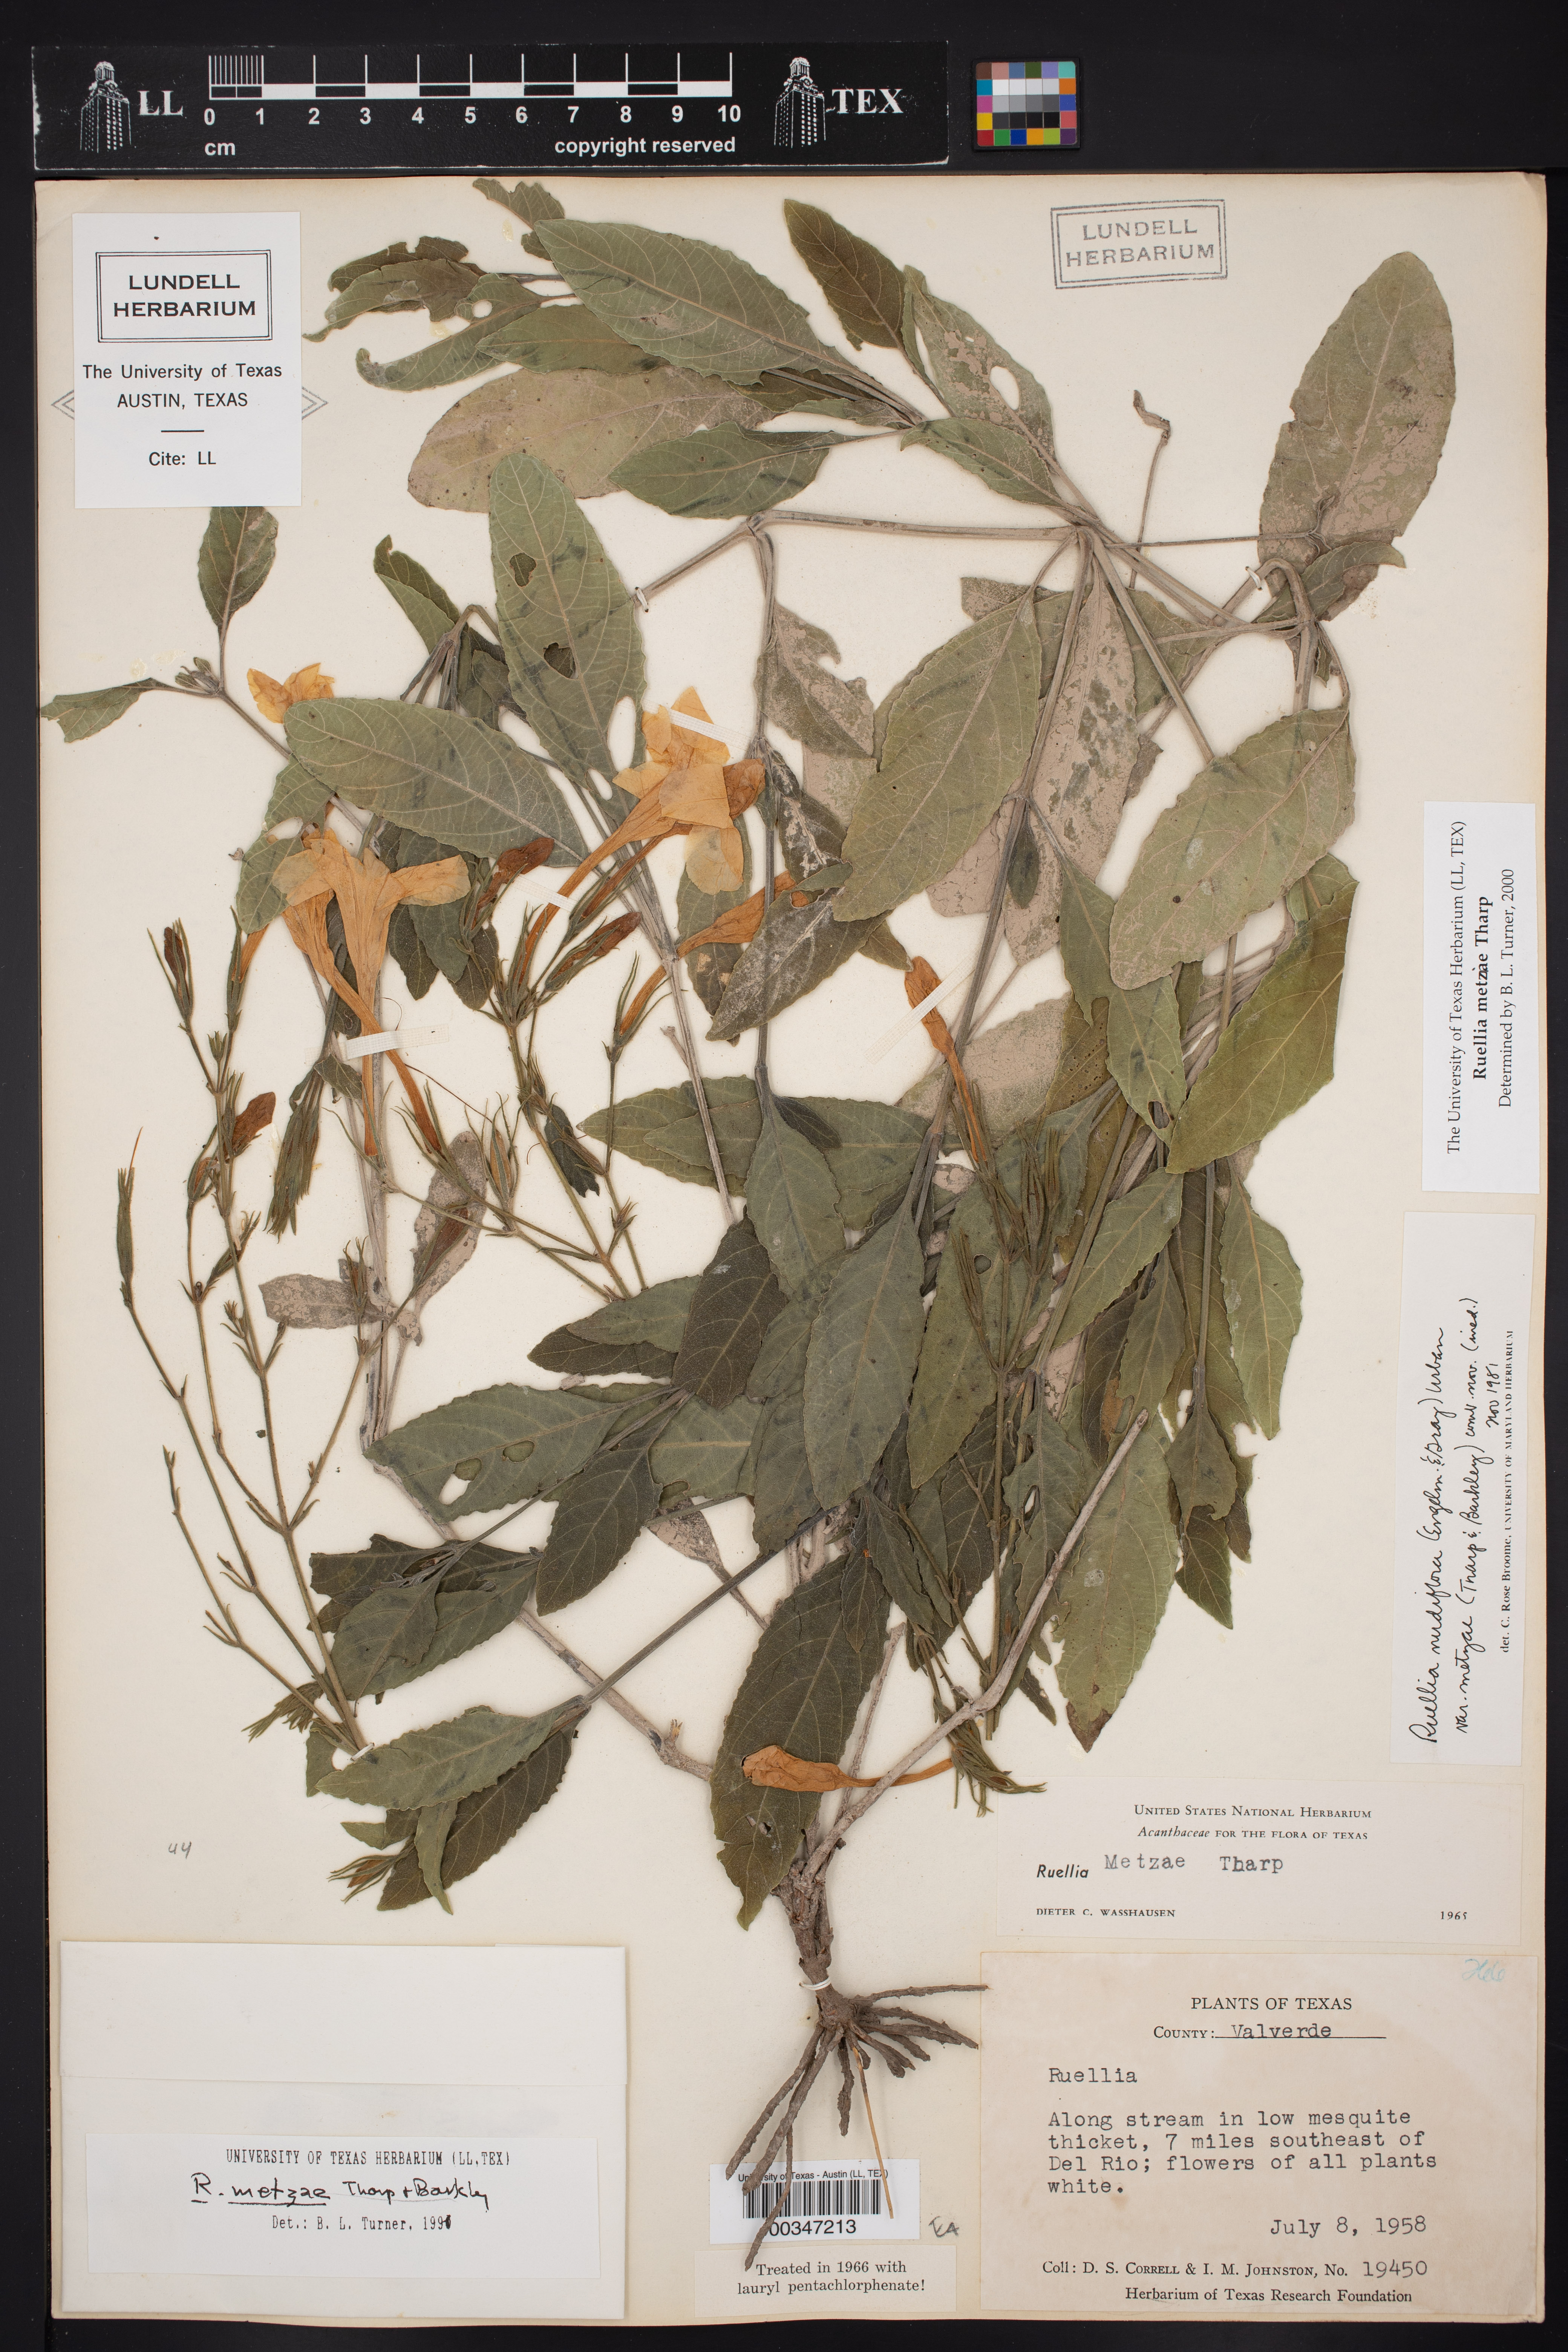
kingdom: Plantae
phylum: Tracheophyta
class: Magnoliopsida
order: Lamiales
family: Acanthaceae
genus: Ruellia
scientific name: Ruellia metziae
